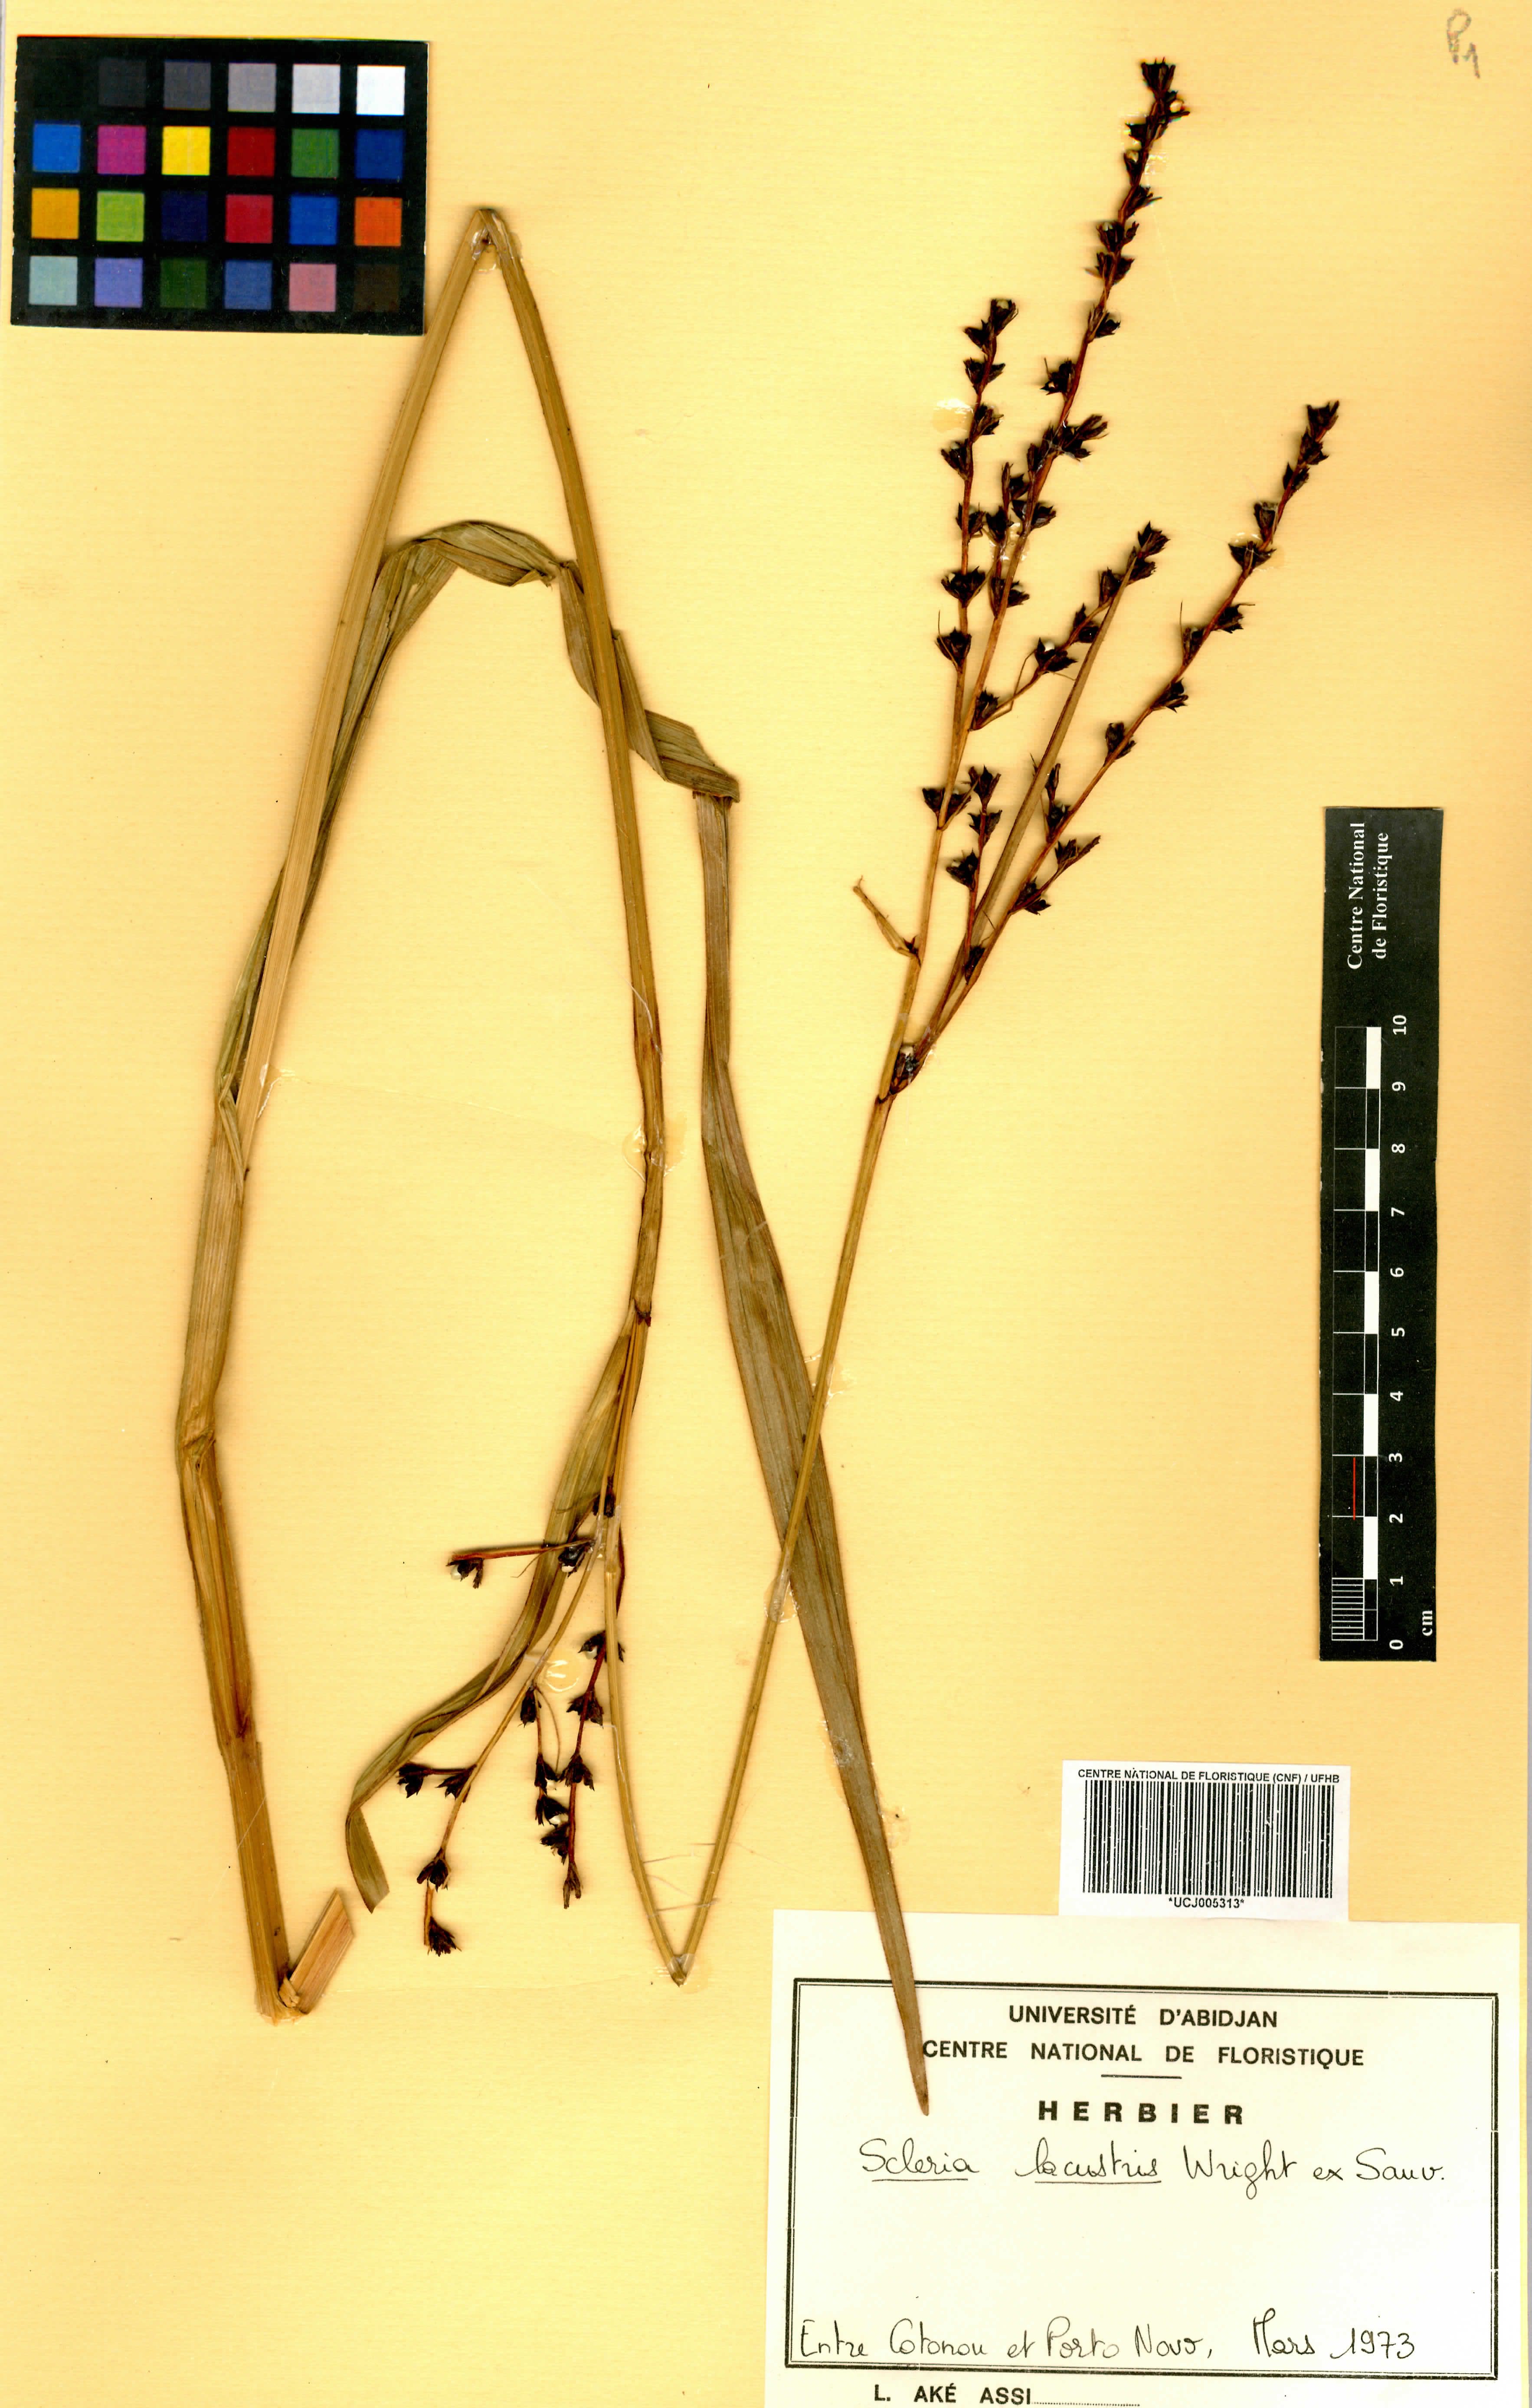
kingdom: Plantae
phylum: Tracheophyta
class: Liliopsida
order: Poales
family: Cyperaceae
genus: Scleria
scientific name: Scleria lacustris
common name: Lakeshore nutrush
